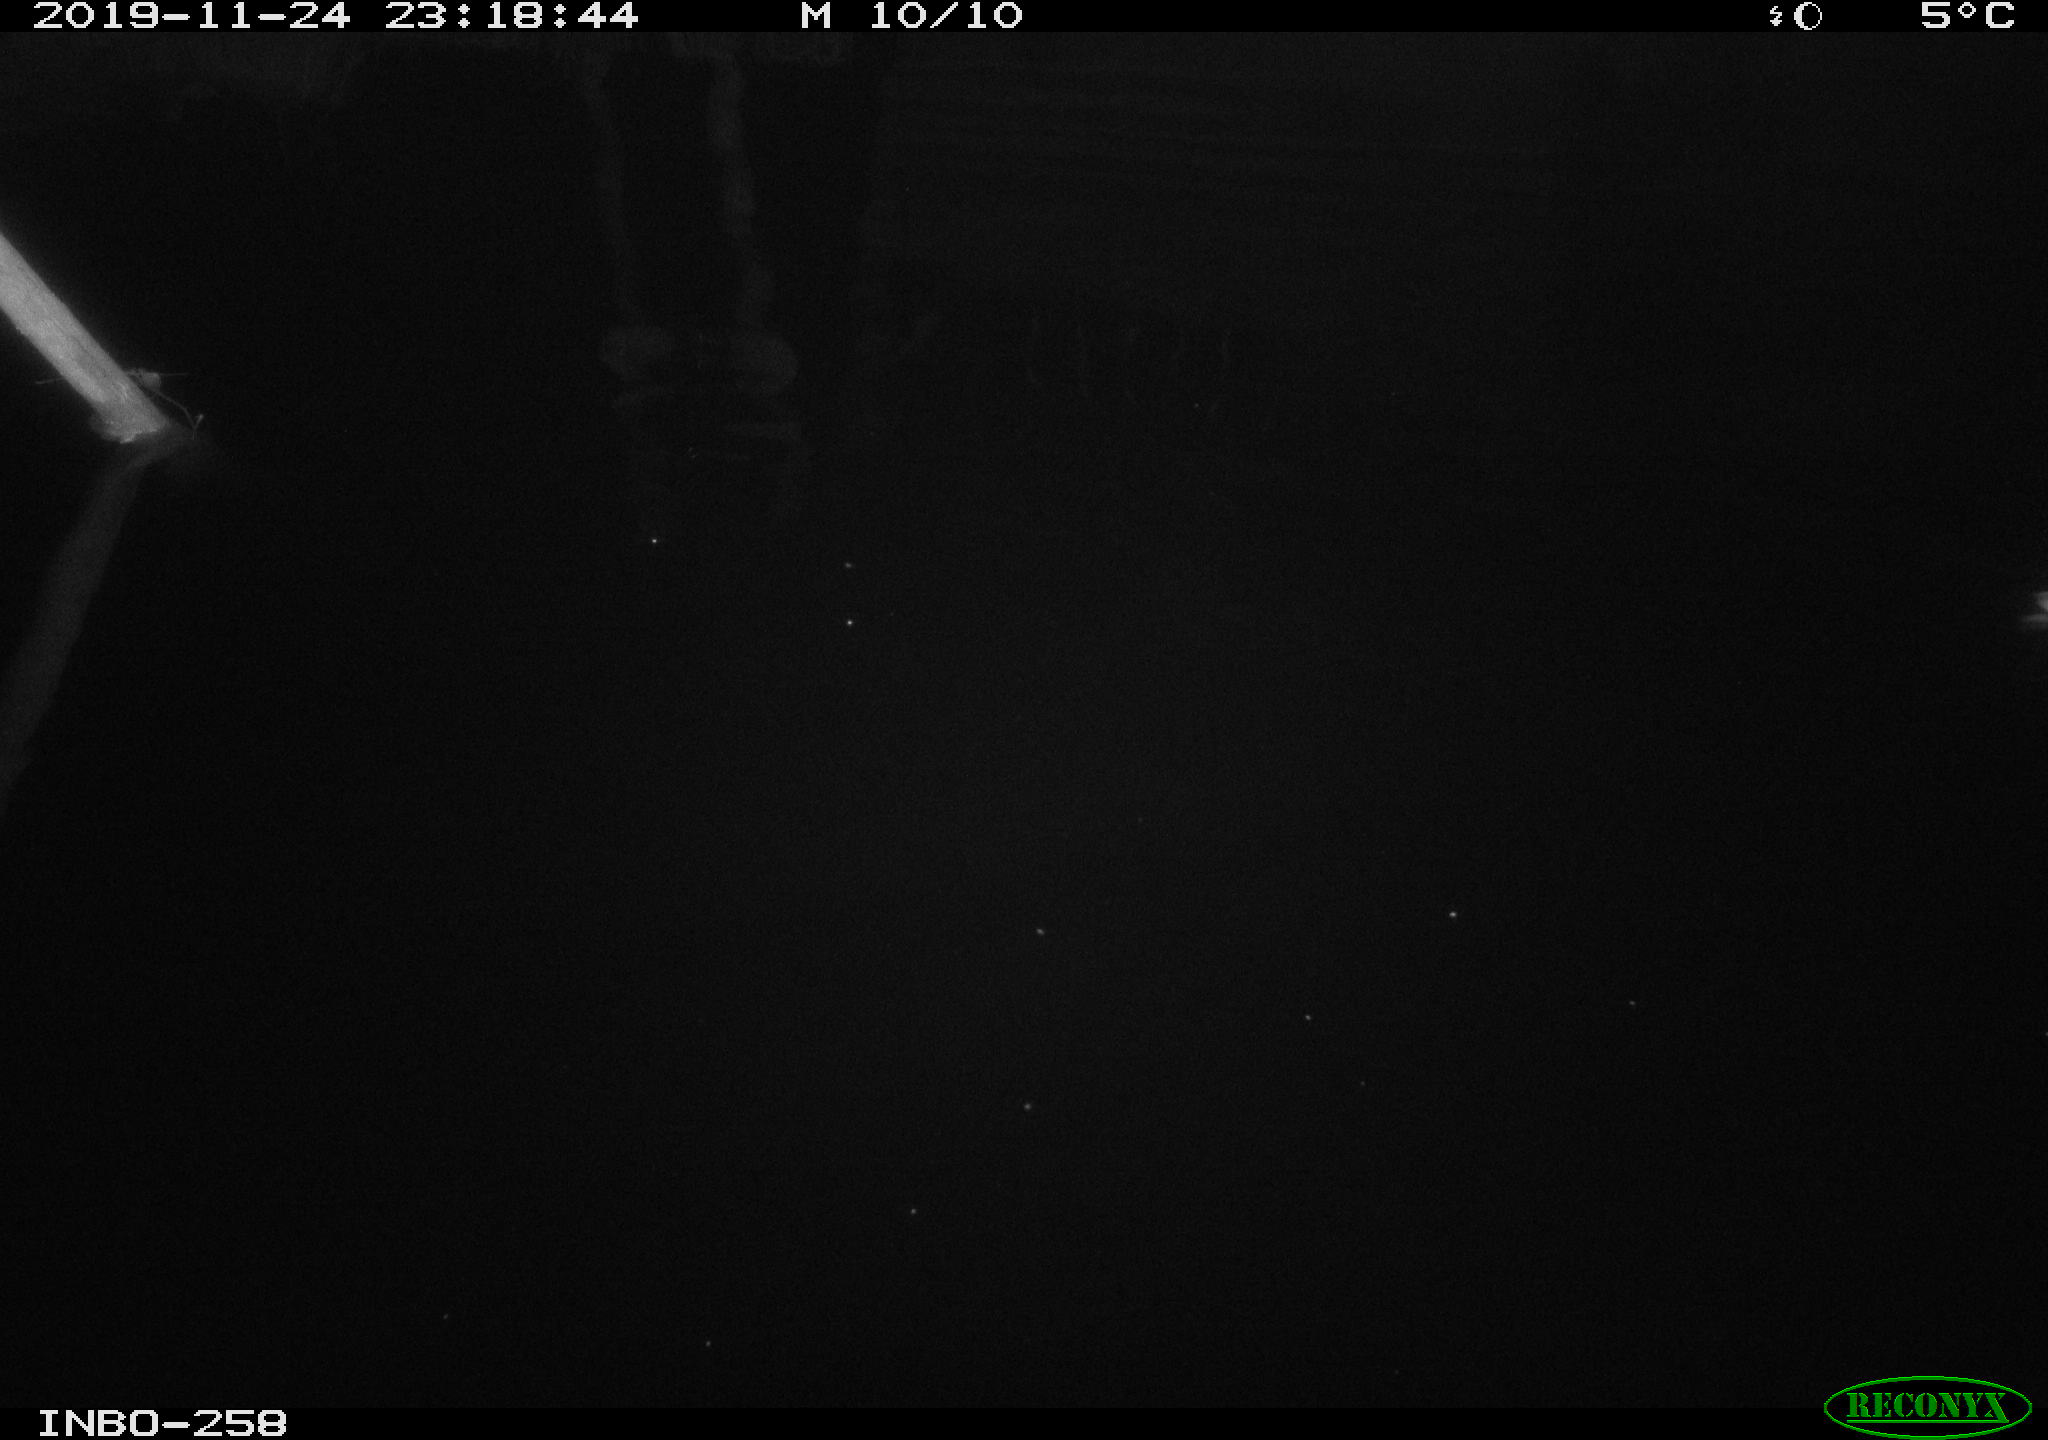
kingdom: Animalia
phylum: Chordata
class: Aves
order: Anseriformes
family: Anatidae
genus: Anas
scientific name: Anas platyrhynchos
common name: Mallard
